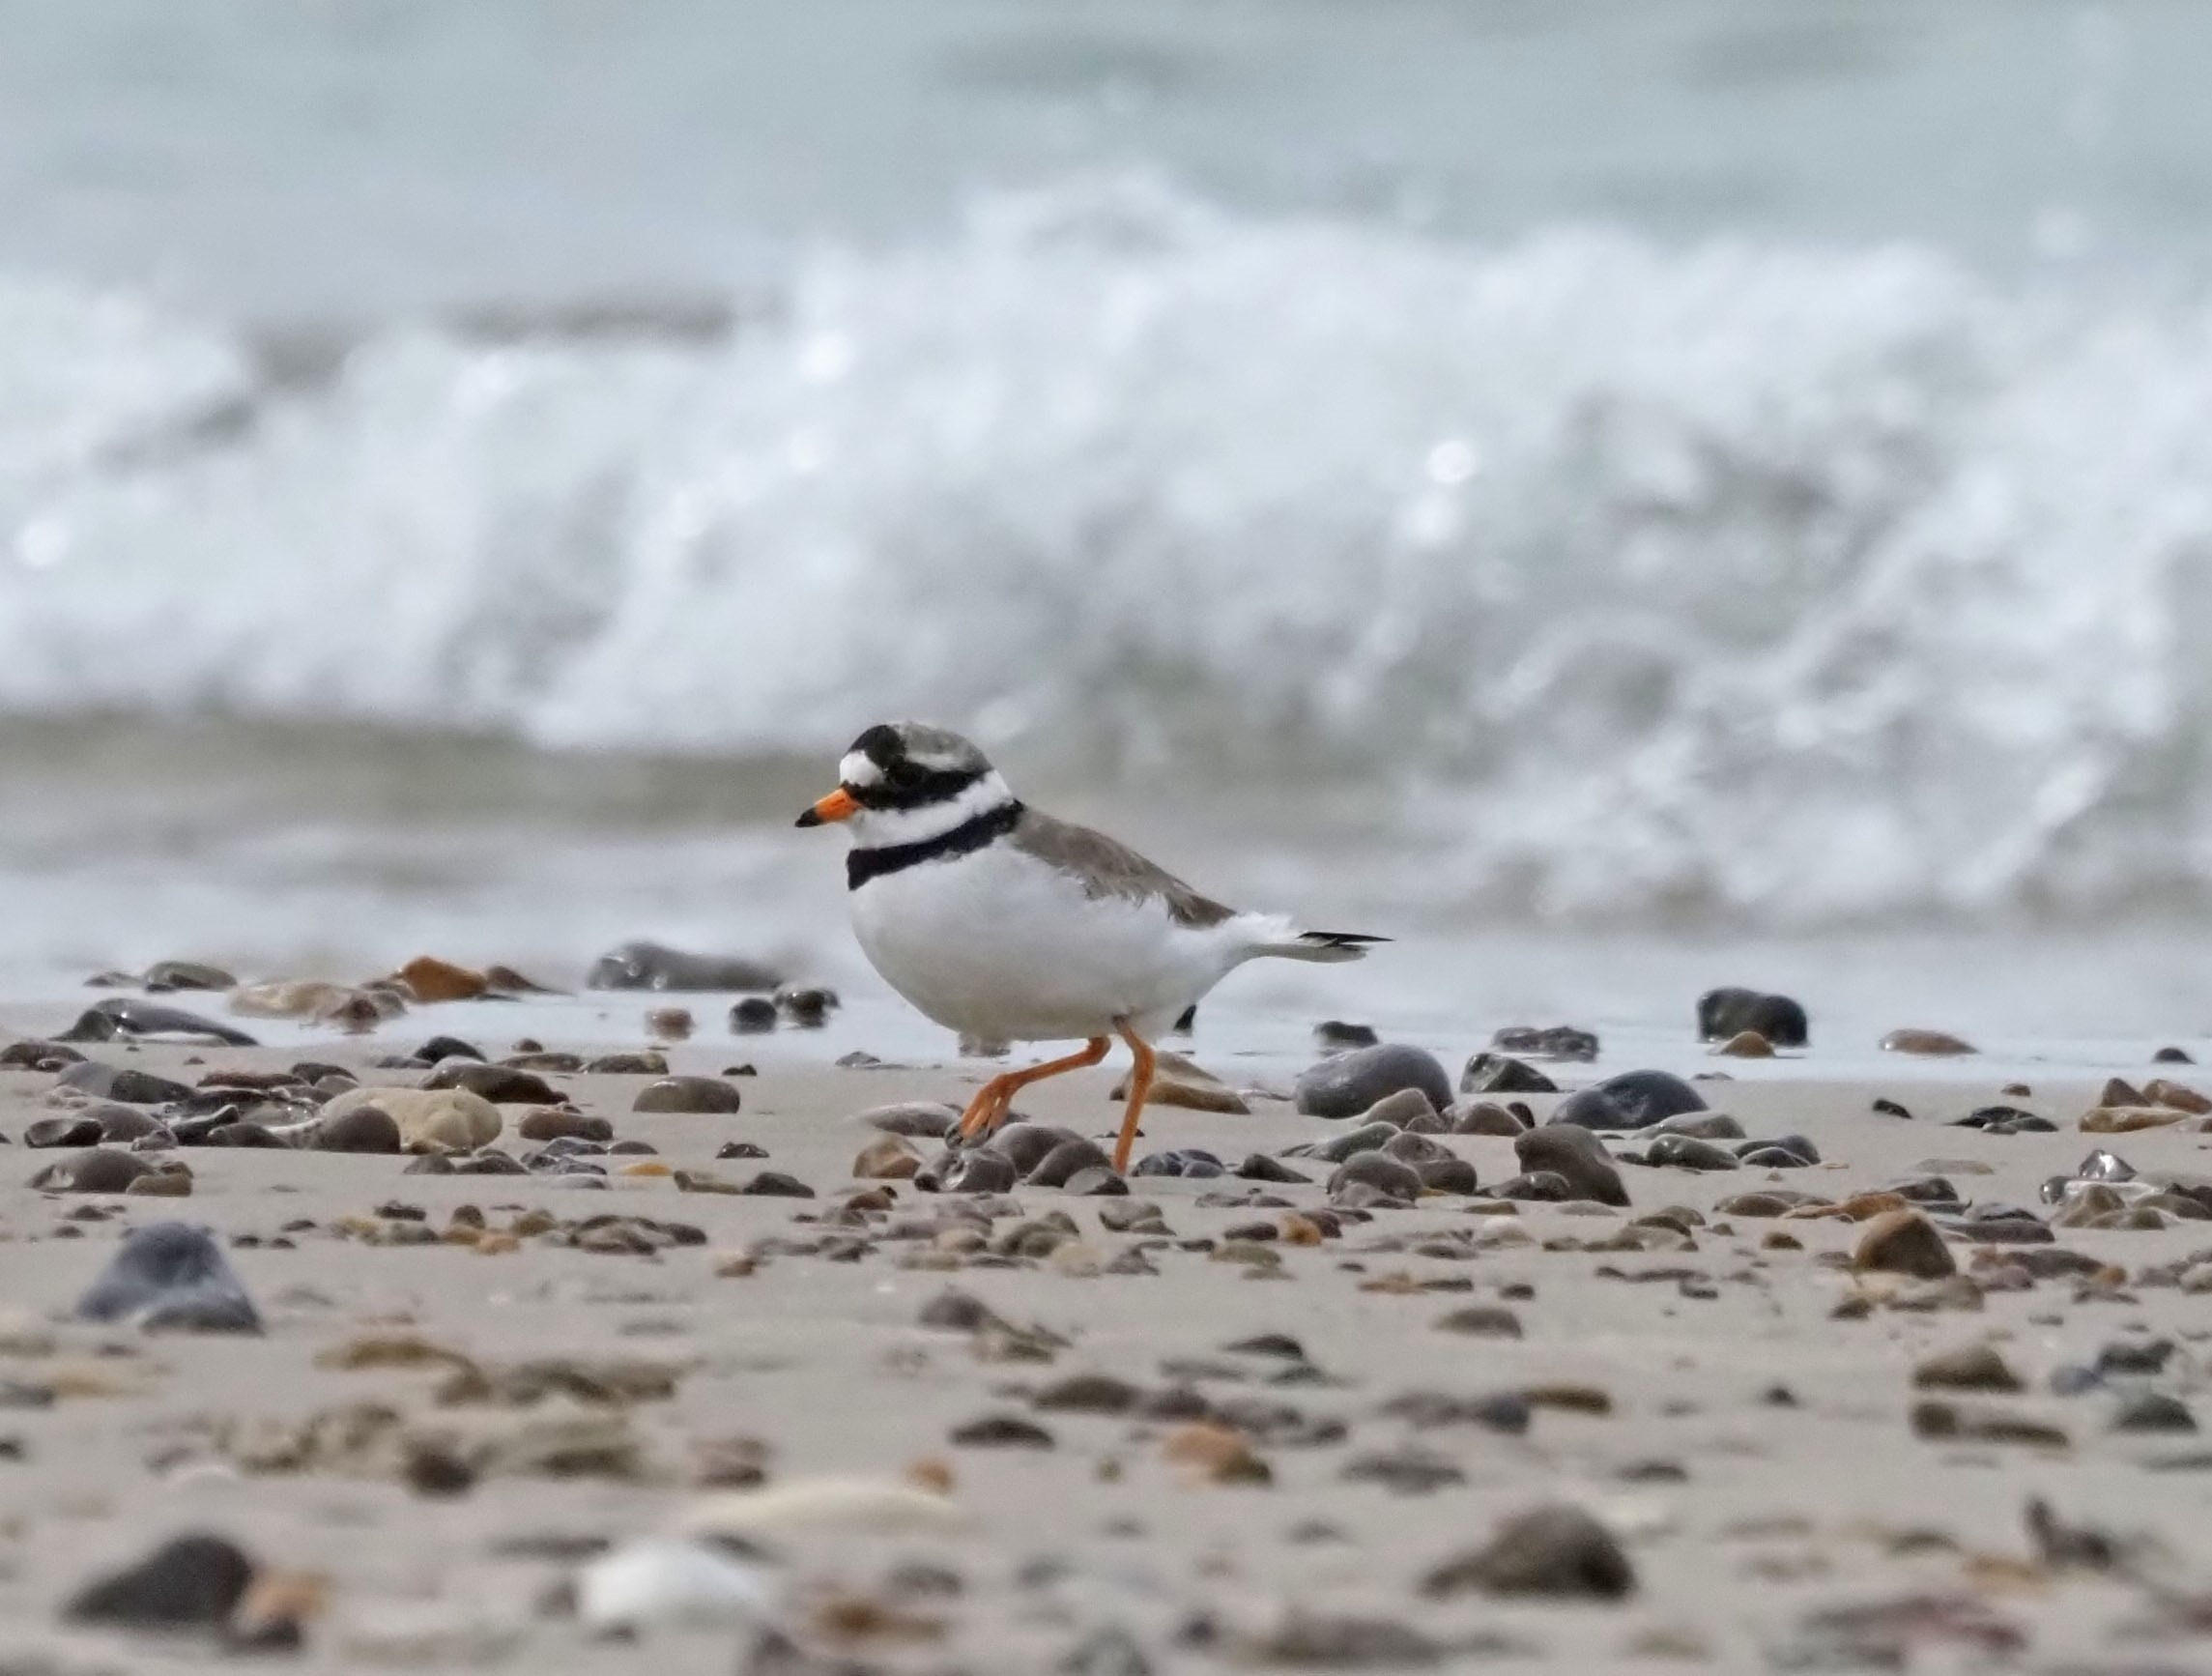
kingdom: Animalia
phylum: Chordata
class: Aves
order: Charadriiformes
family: Charadriidae
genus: Charadrius
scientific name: Charadrius hiaticula
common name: Stor præstekrave
